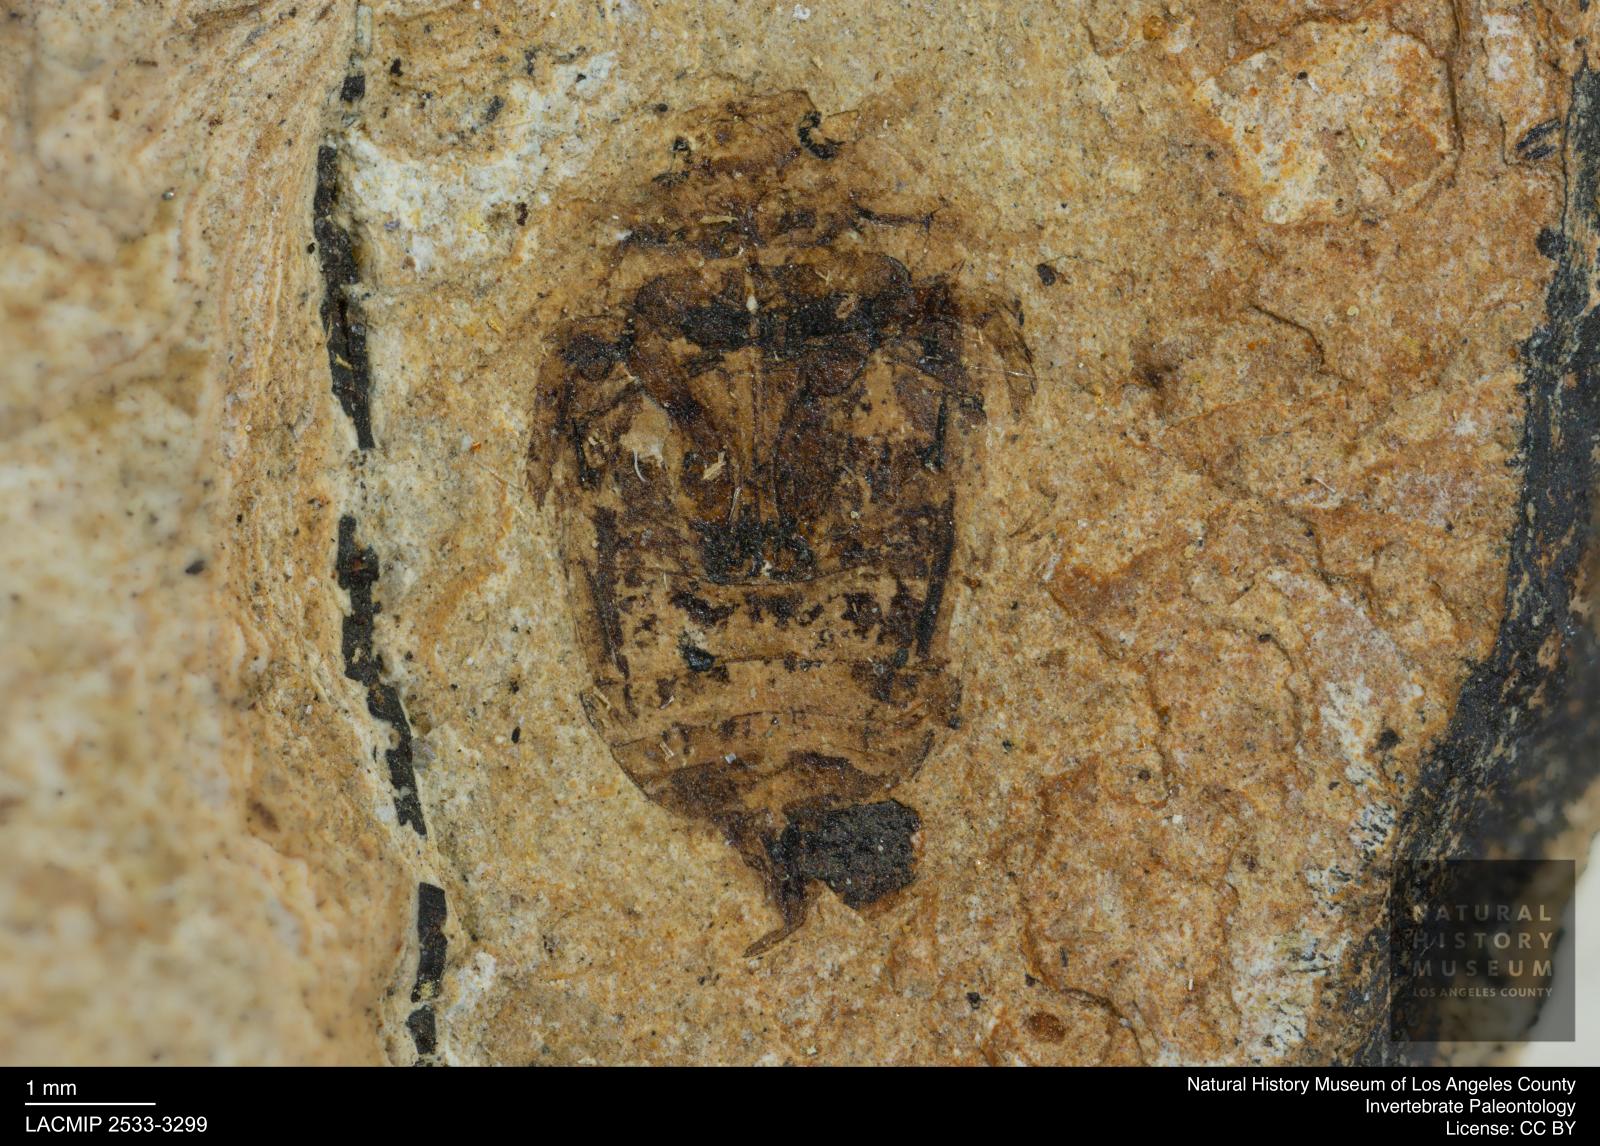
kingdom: Animalia
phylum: Arthropoda
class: Insecta
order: Coleoptera
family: Dytiscidae
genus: Laccophilus
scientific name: Laccophilus Palaeogyrinus strigatus
